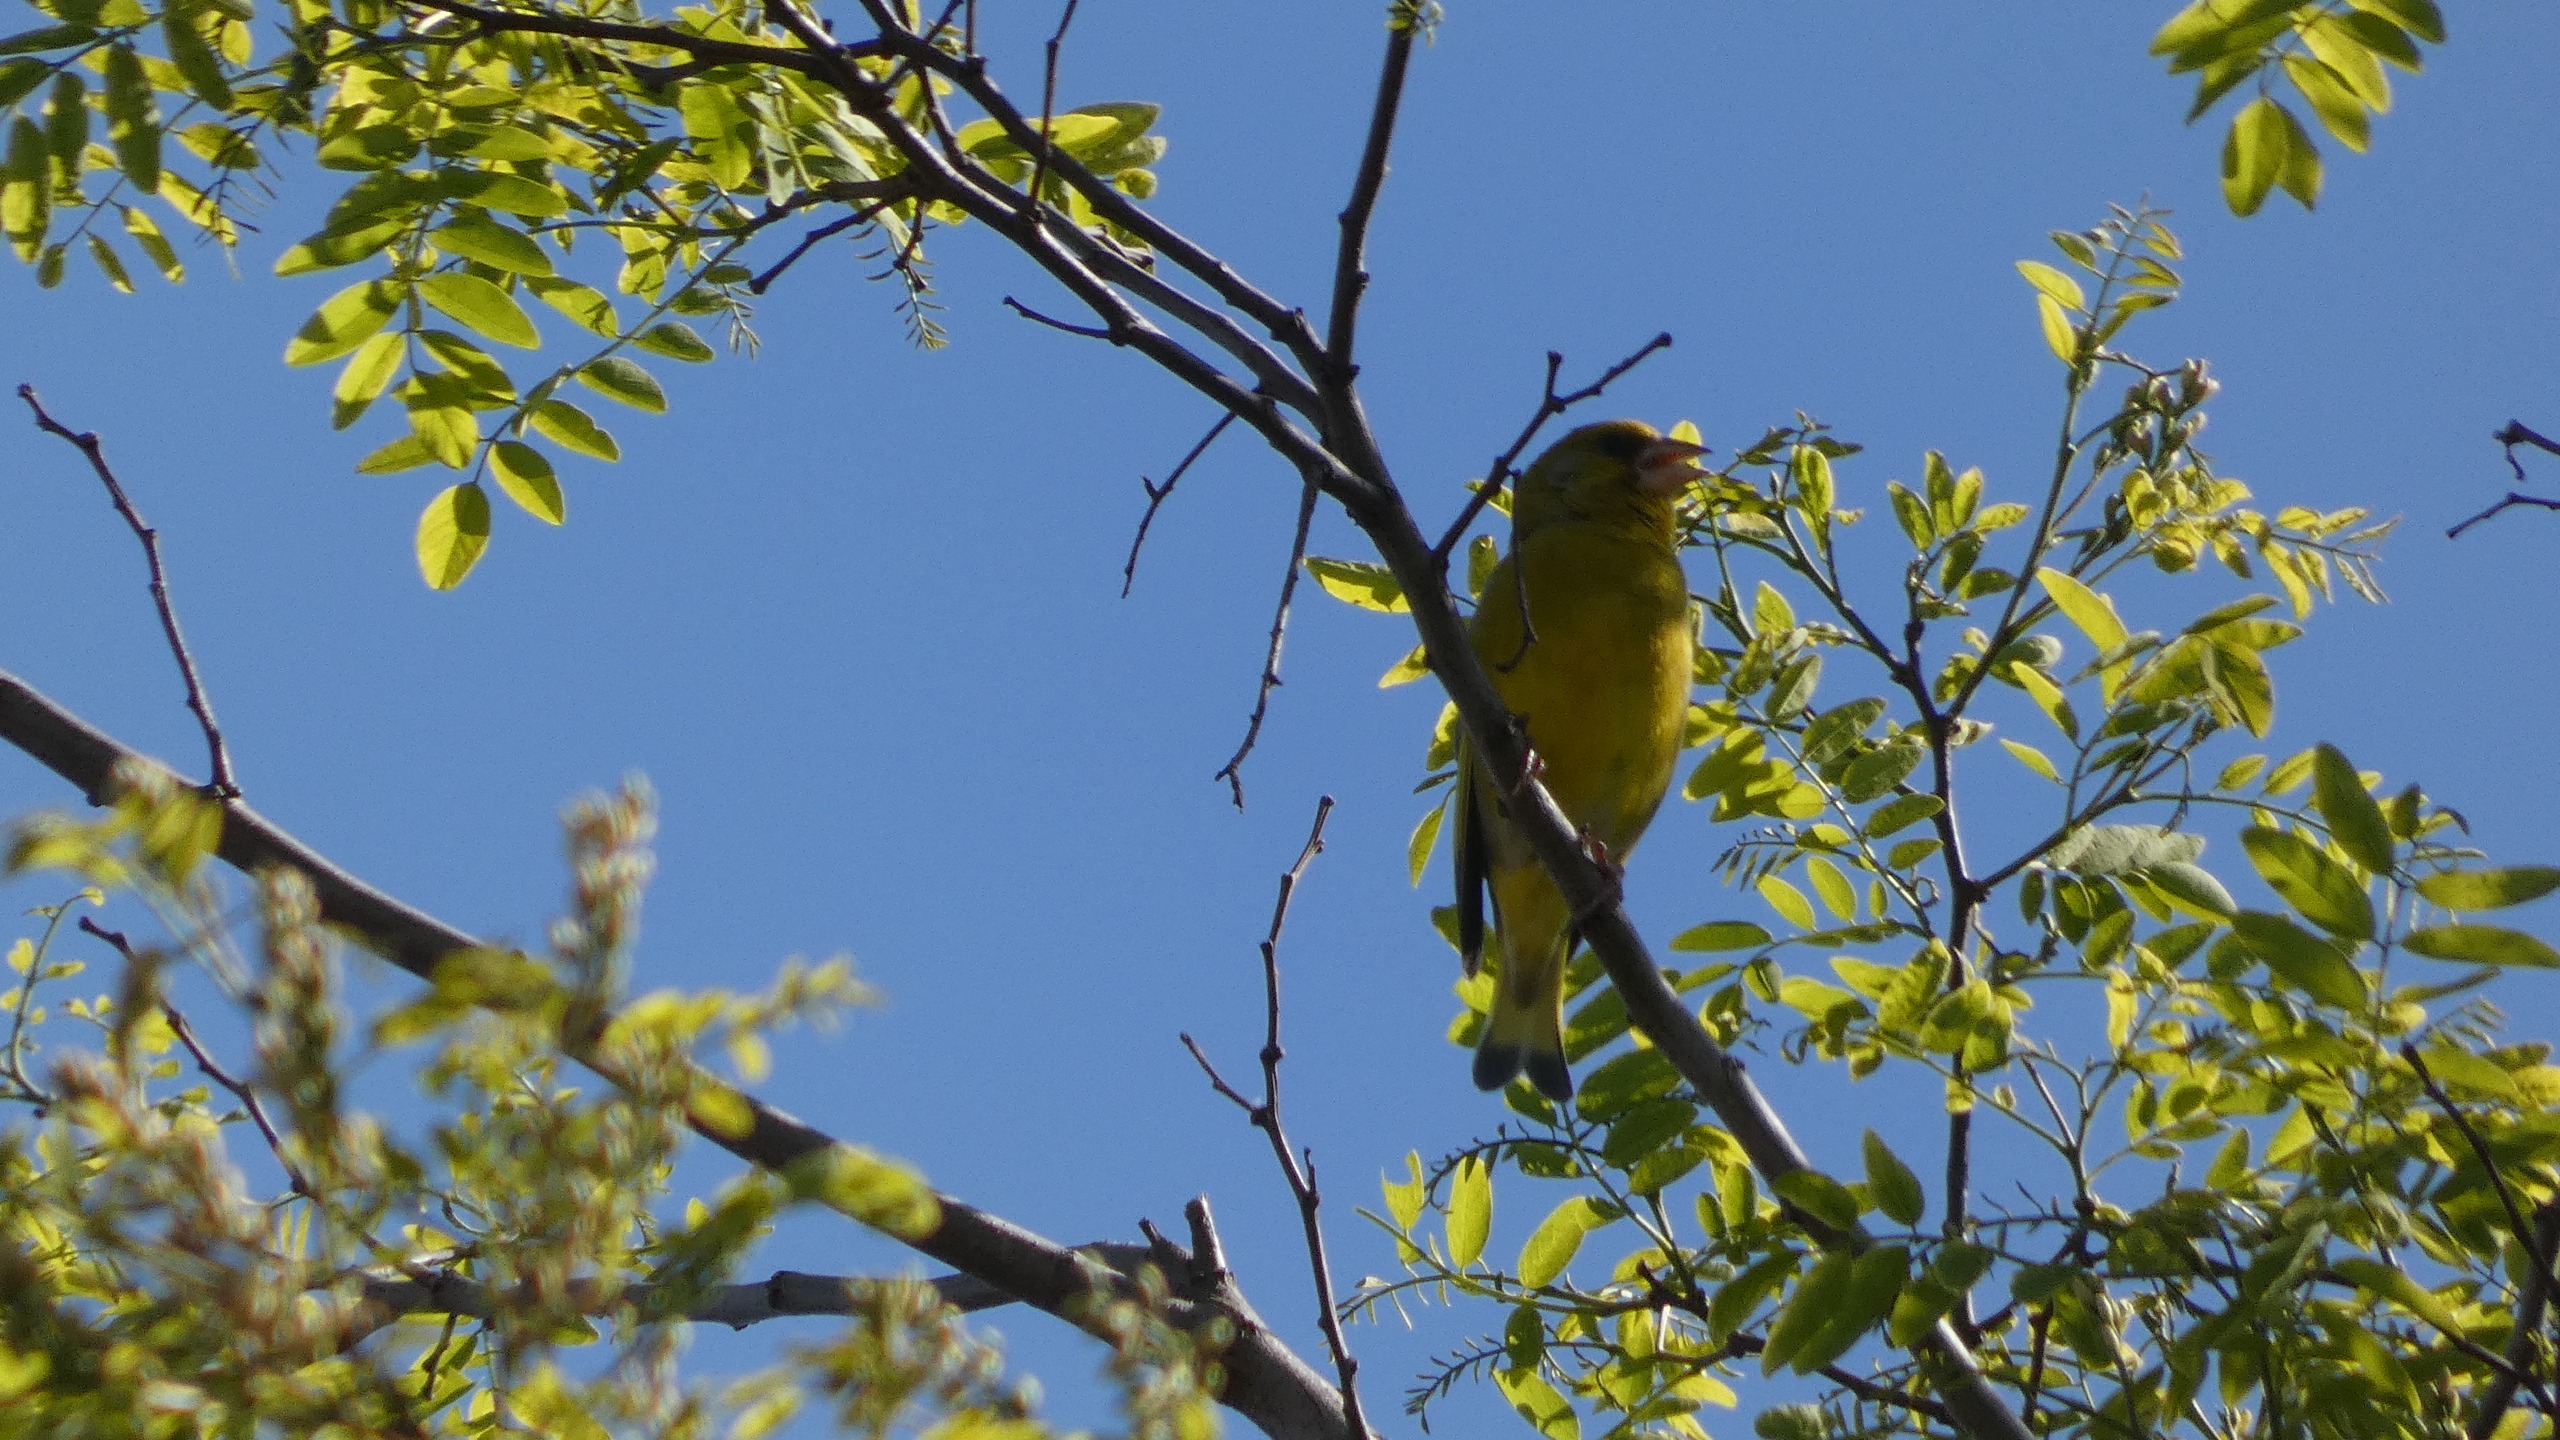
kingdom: Plantae
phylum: Tracheophyta
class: Liliopsida
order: Poales
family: Poaceae
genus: Chloris
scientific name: Chloris chloris
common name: Grønirisk
